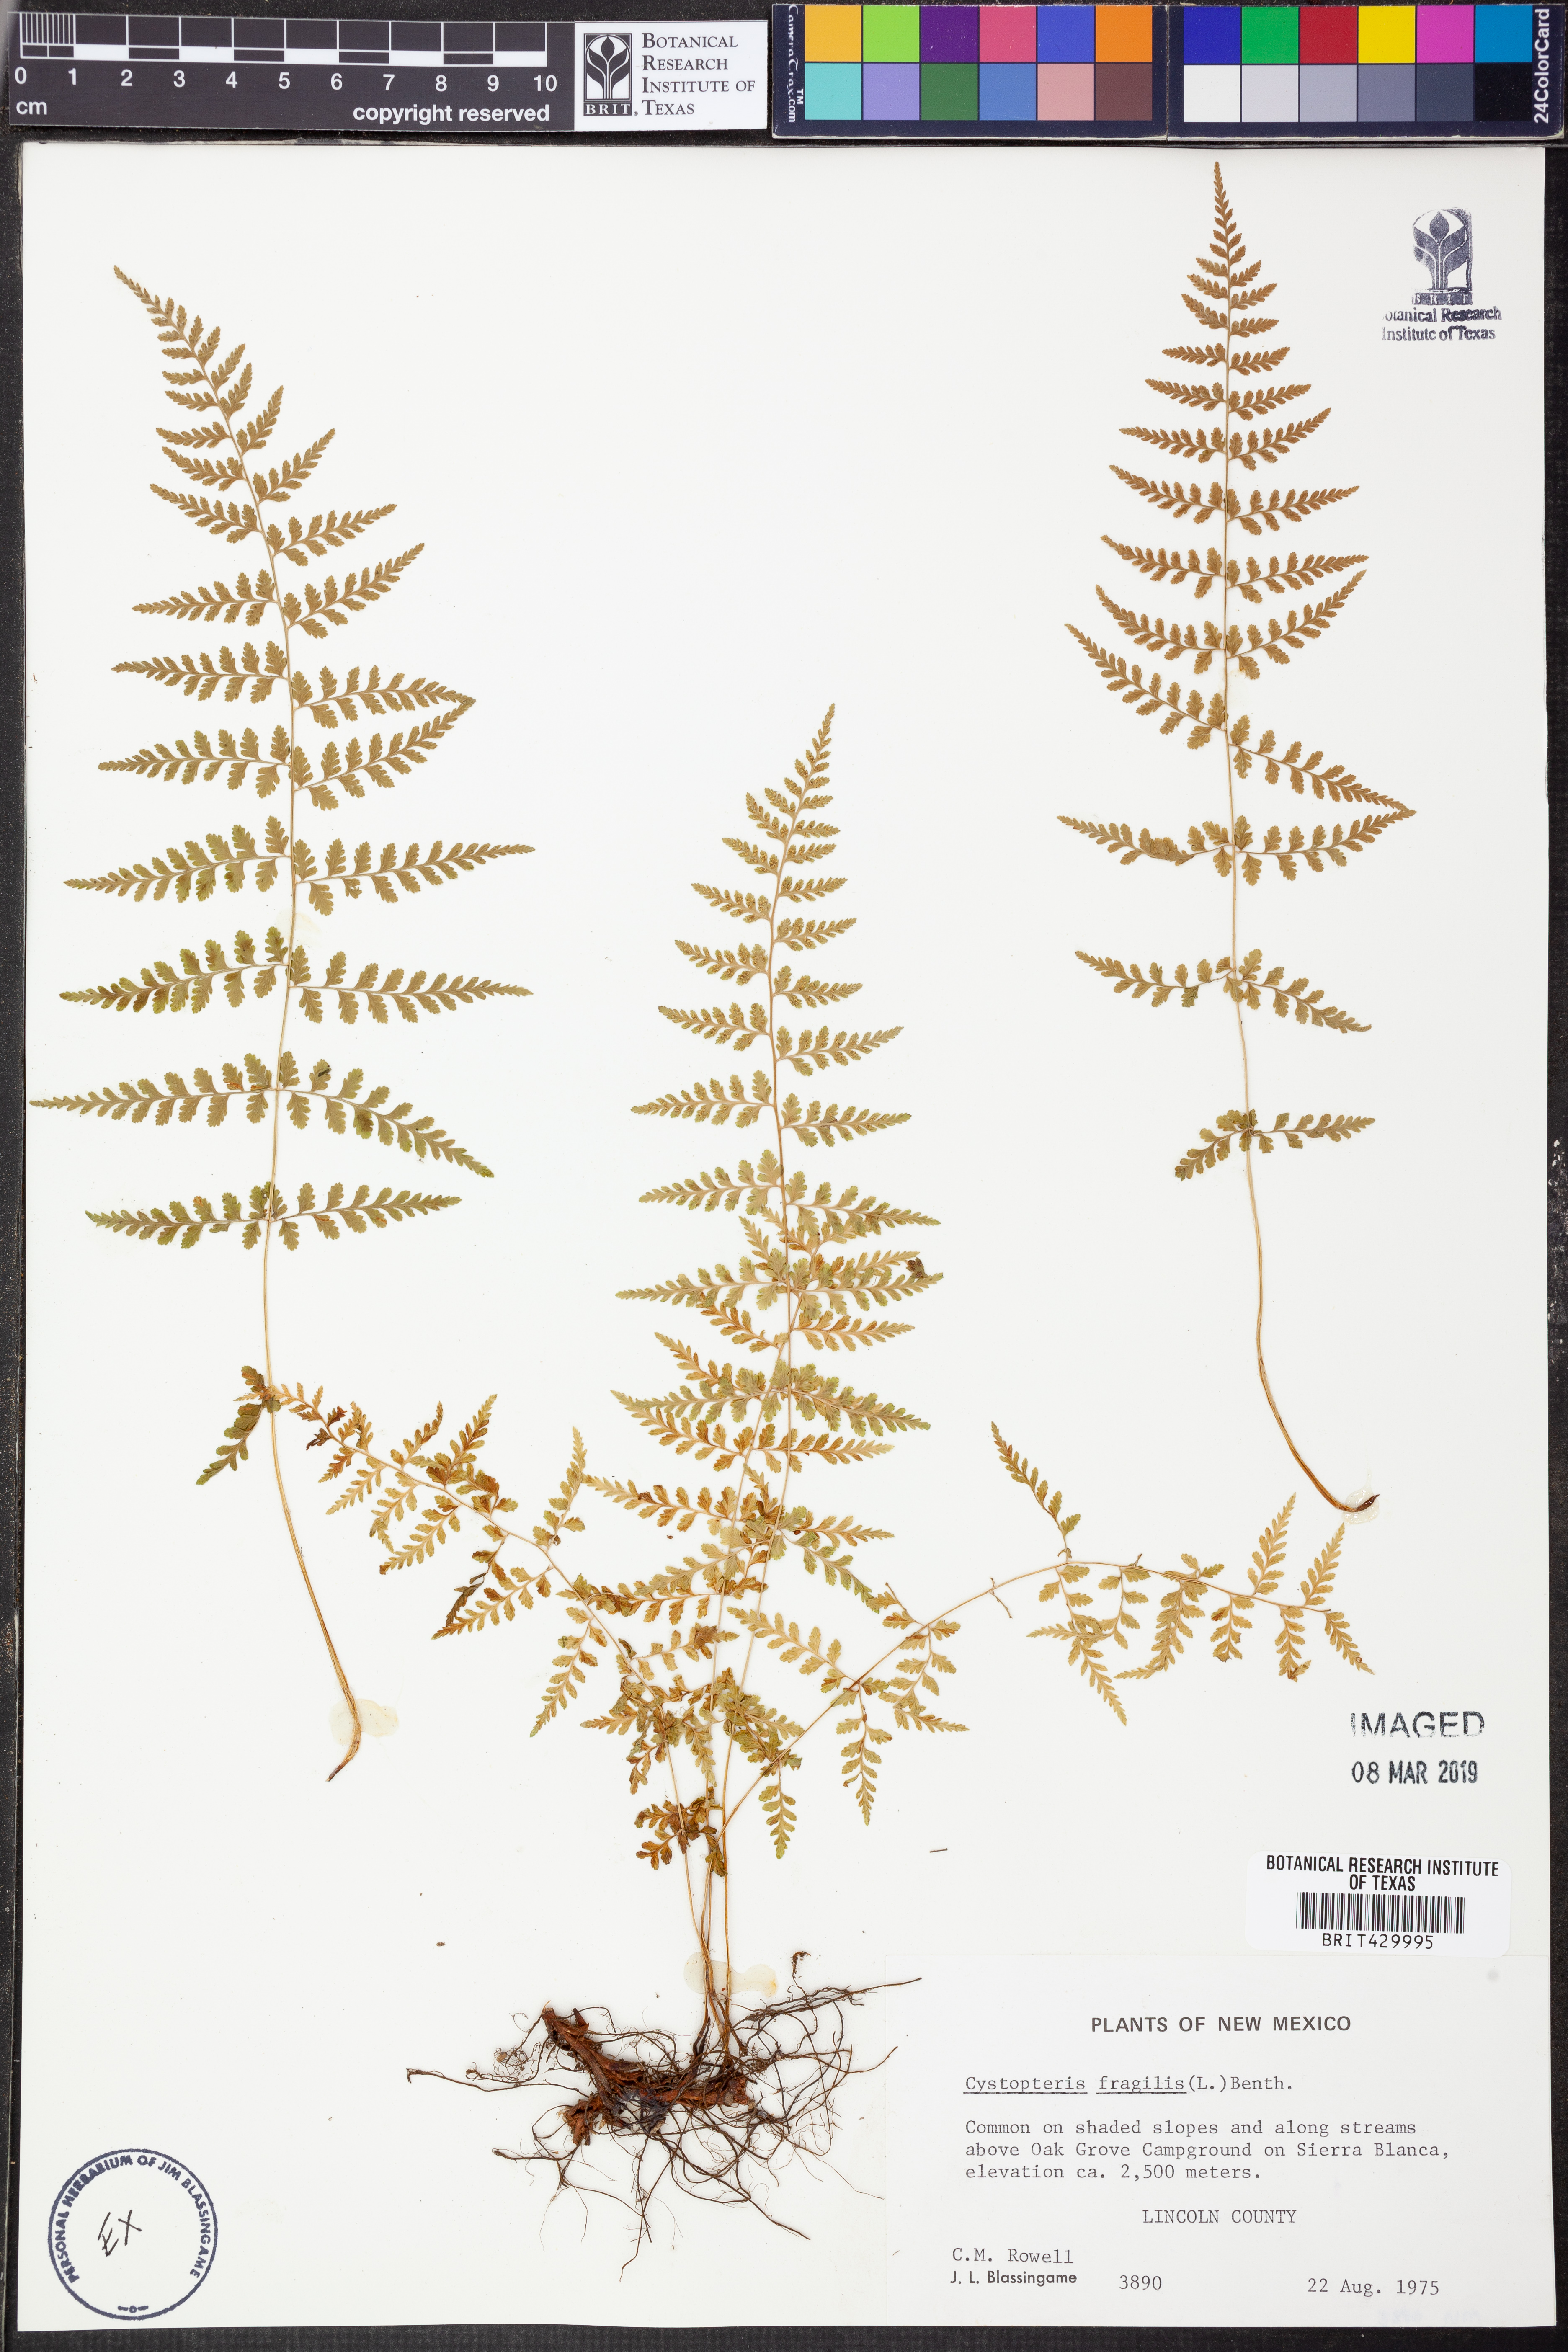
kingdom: Plantae
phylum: Tracheophyta
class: Polypodiopsida
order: Polypodiales
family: Cystopteridaceae
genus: Cystopteris
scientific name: Cystopteris fragilis
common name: Brittle bladder fern
